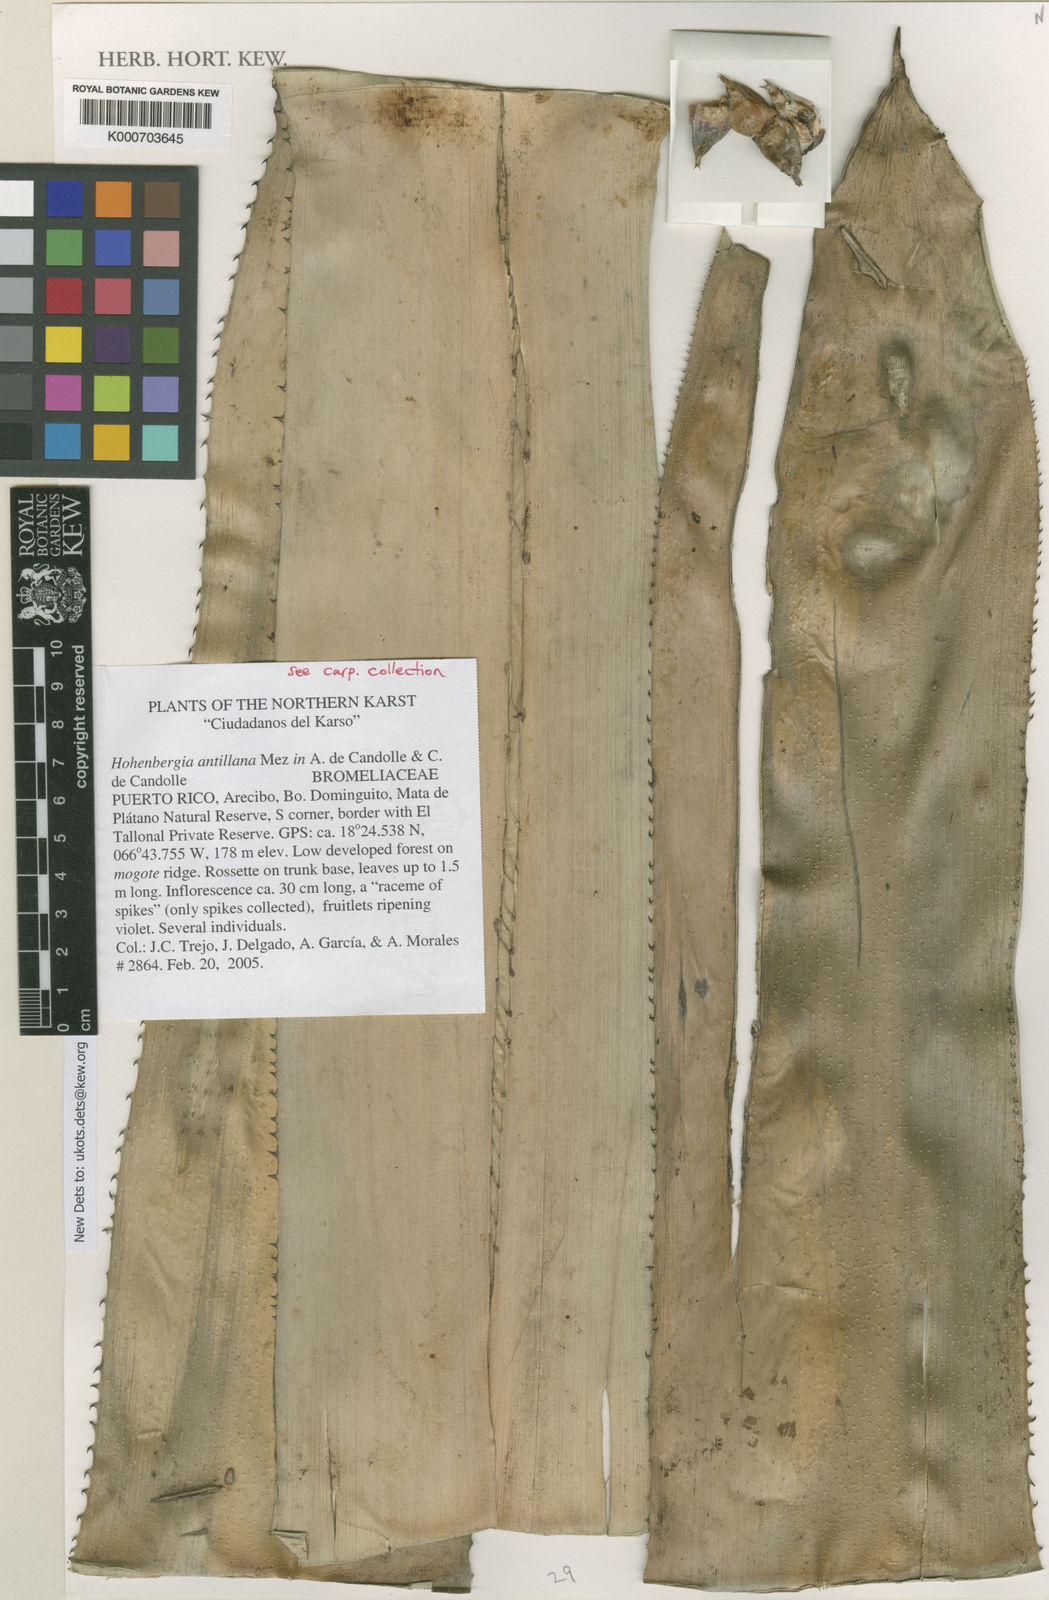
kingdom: Plantae
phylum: Tracheophyta
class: Liliopsida
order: Poales
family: Bromeliaceae
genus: Wittmackia
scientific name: Wittmackia antillana
